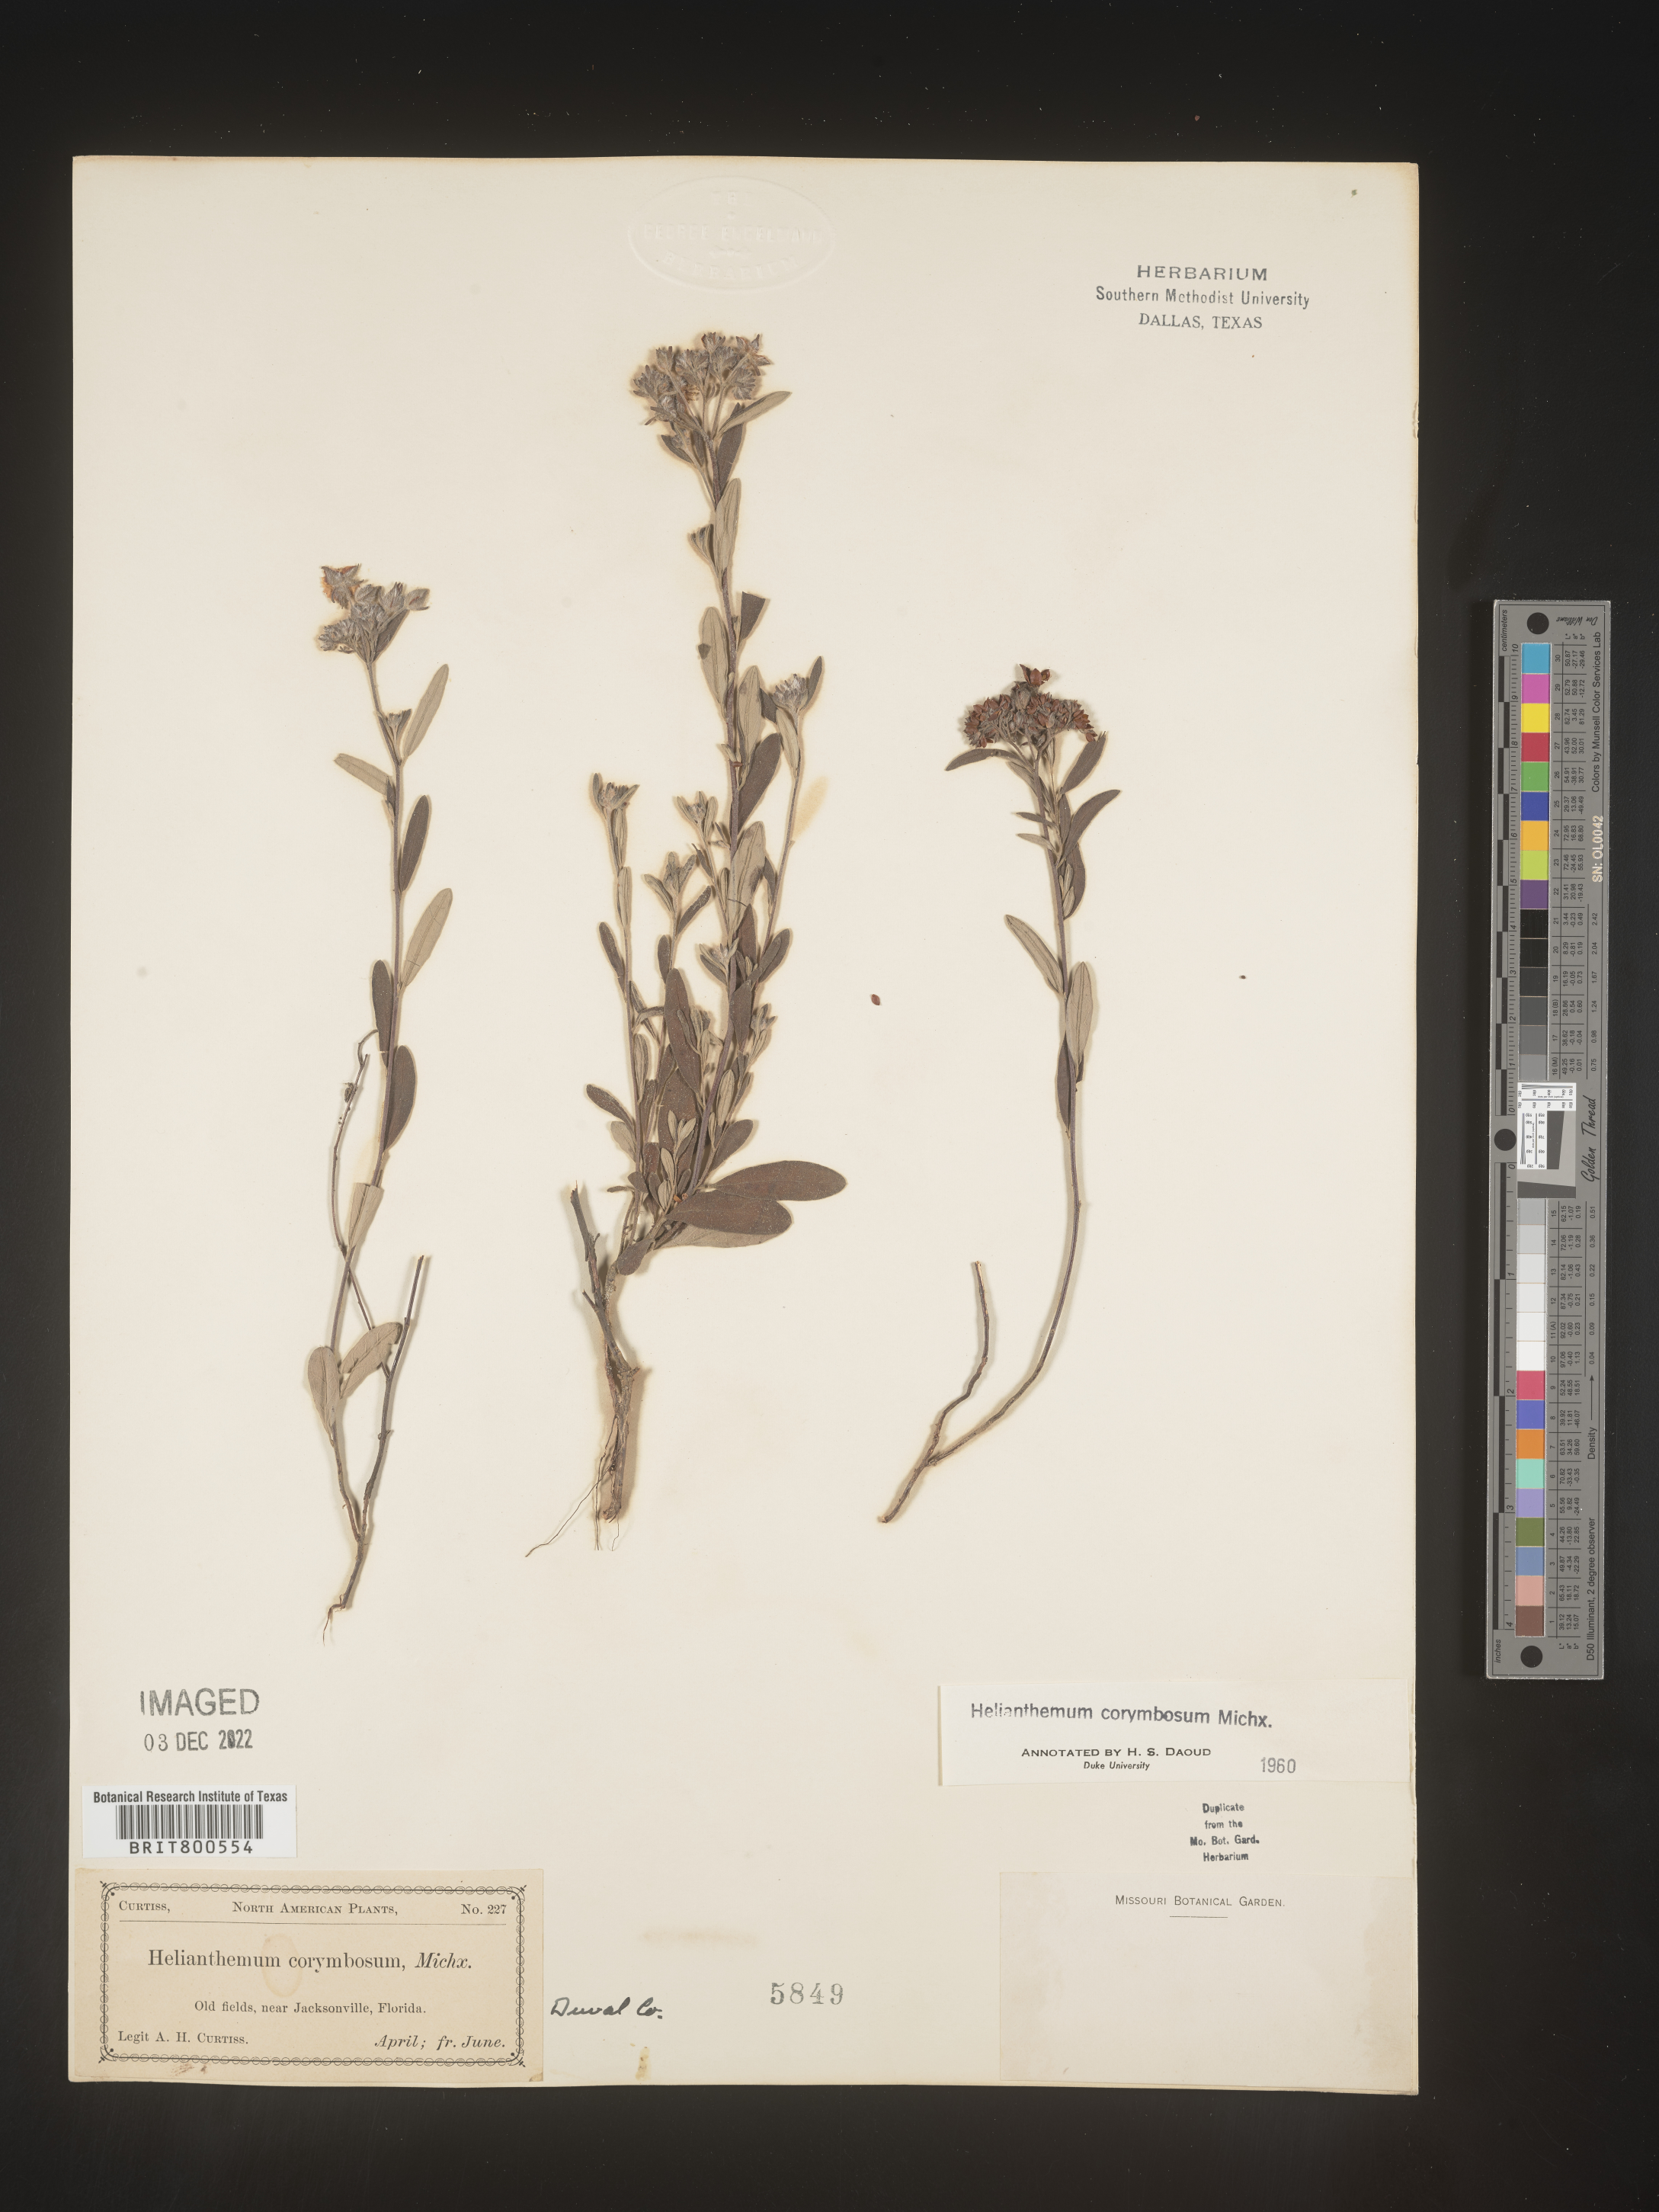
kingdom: Plantae
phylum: Tracheophyta
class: Magnoliopsida
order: Malvales
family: Cistaceae
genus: Crocanthemum
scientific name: Crocanthemum corymbosum
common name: Pinebarren sun-rose
